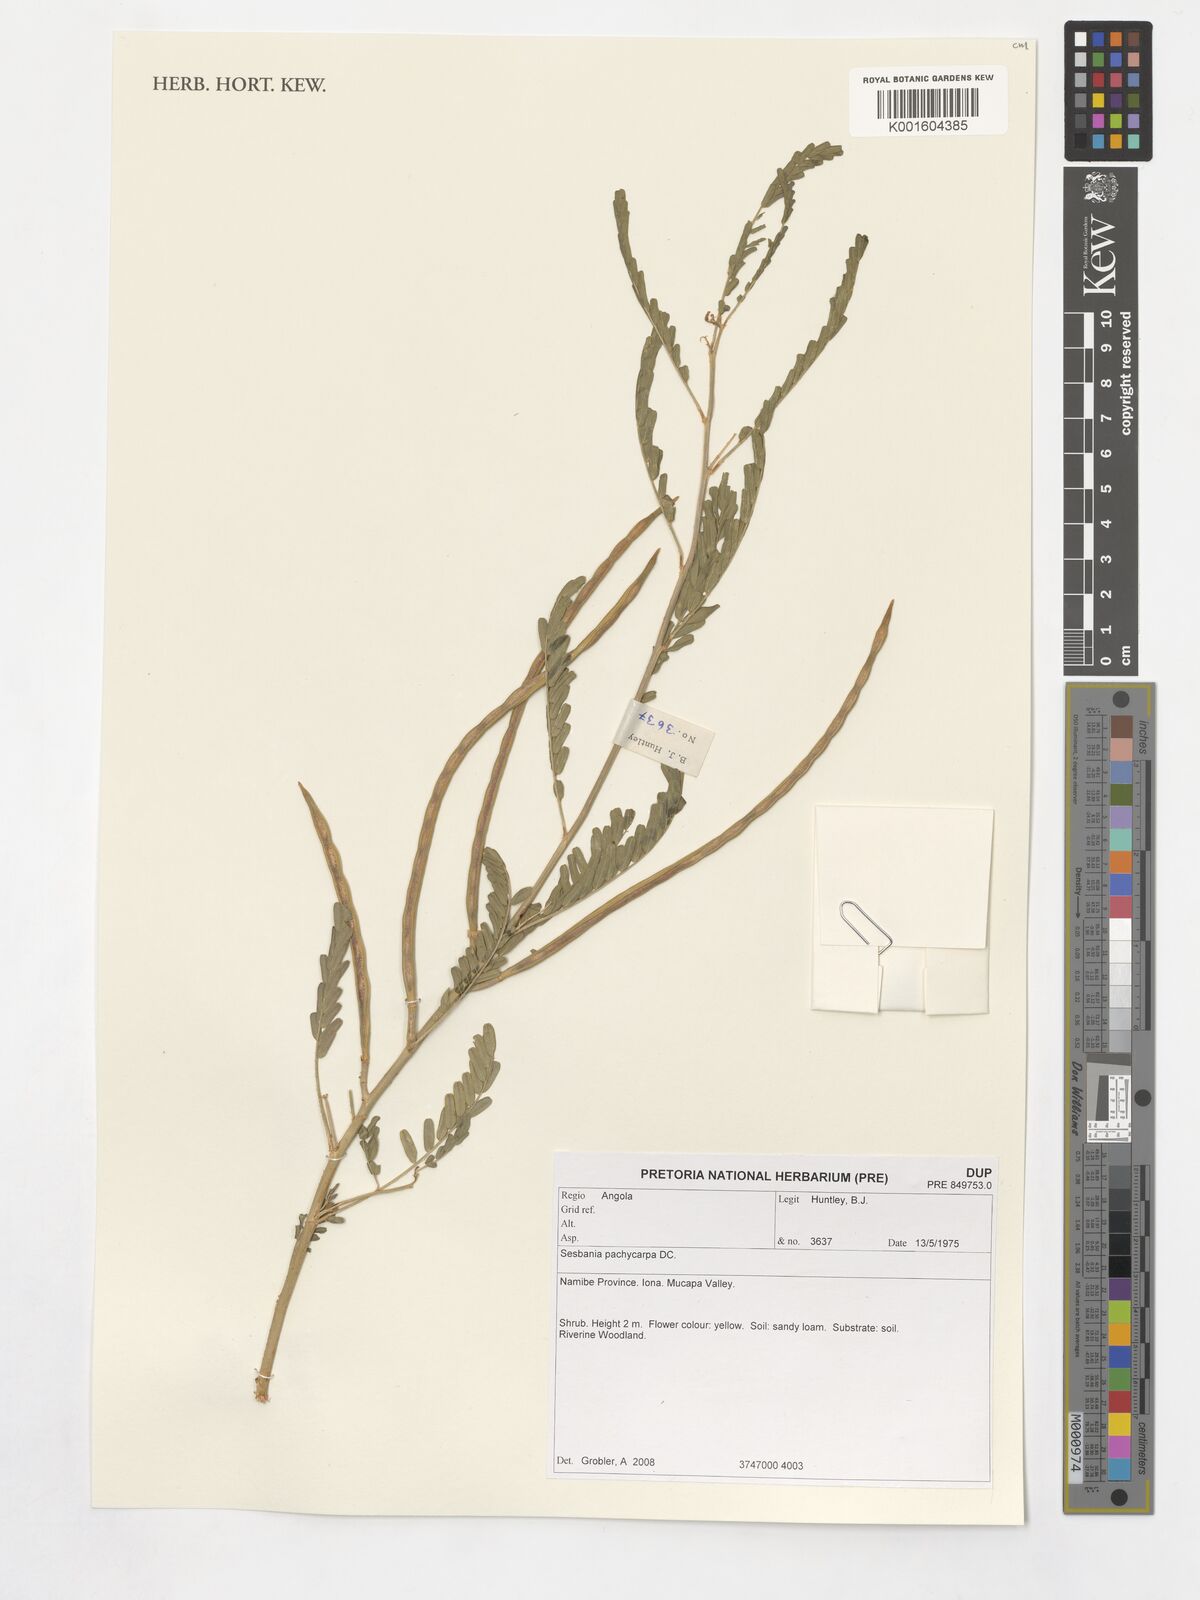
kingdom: Plantae
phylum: Tracheophyta
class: Magnoliopsida
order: Fabales
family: Fabaceae
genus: Sesbania
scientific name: Sesbania pachycarpa
